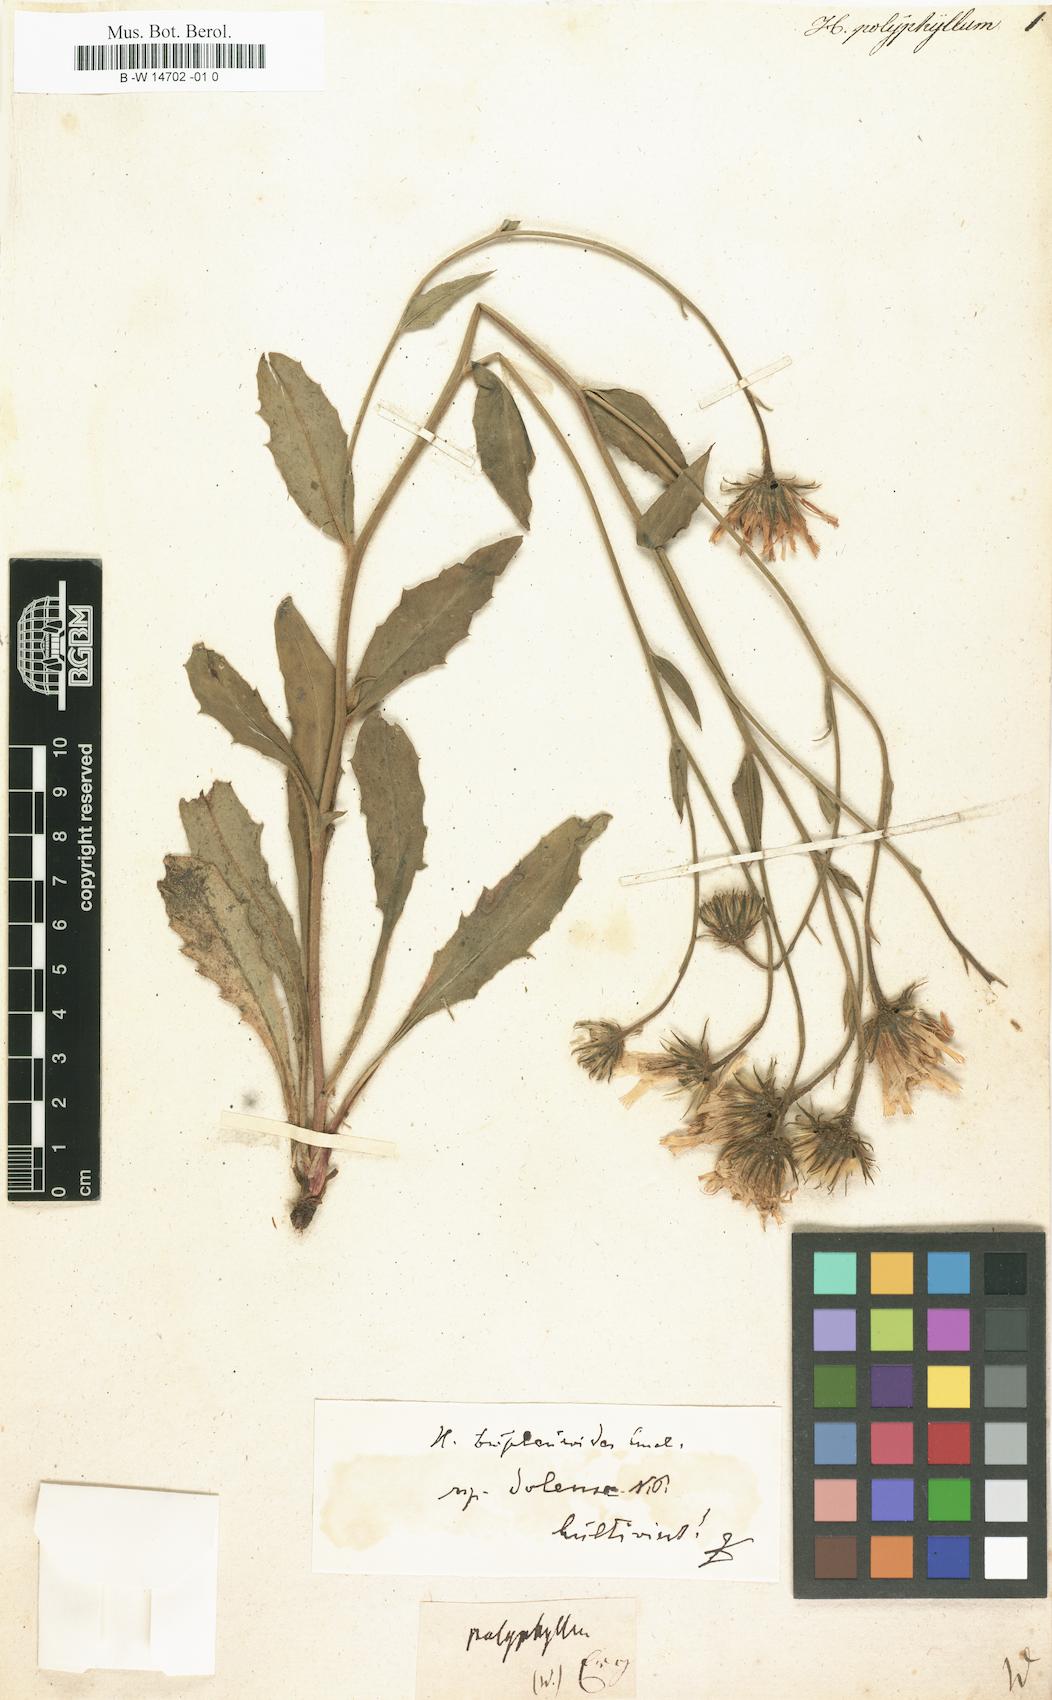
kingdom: Plantae
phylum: Tracheophyta
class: Magnoliopsida
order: Asterales
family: Asteraceae
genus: Hieracium
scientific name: Hieracium
